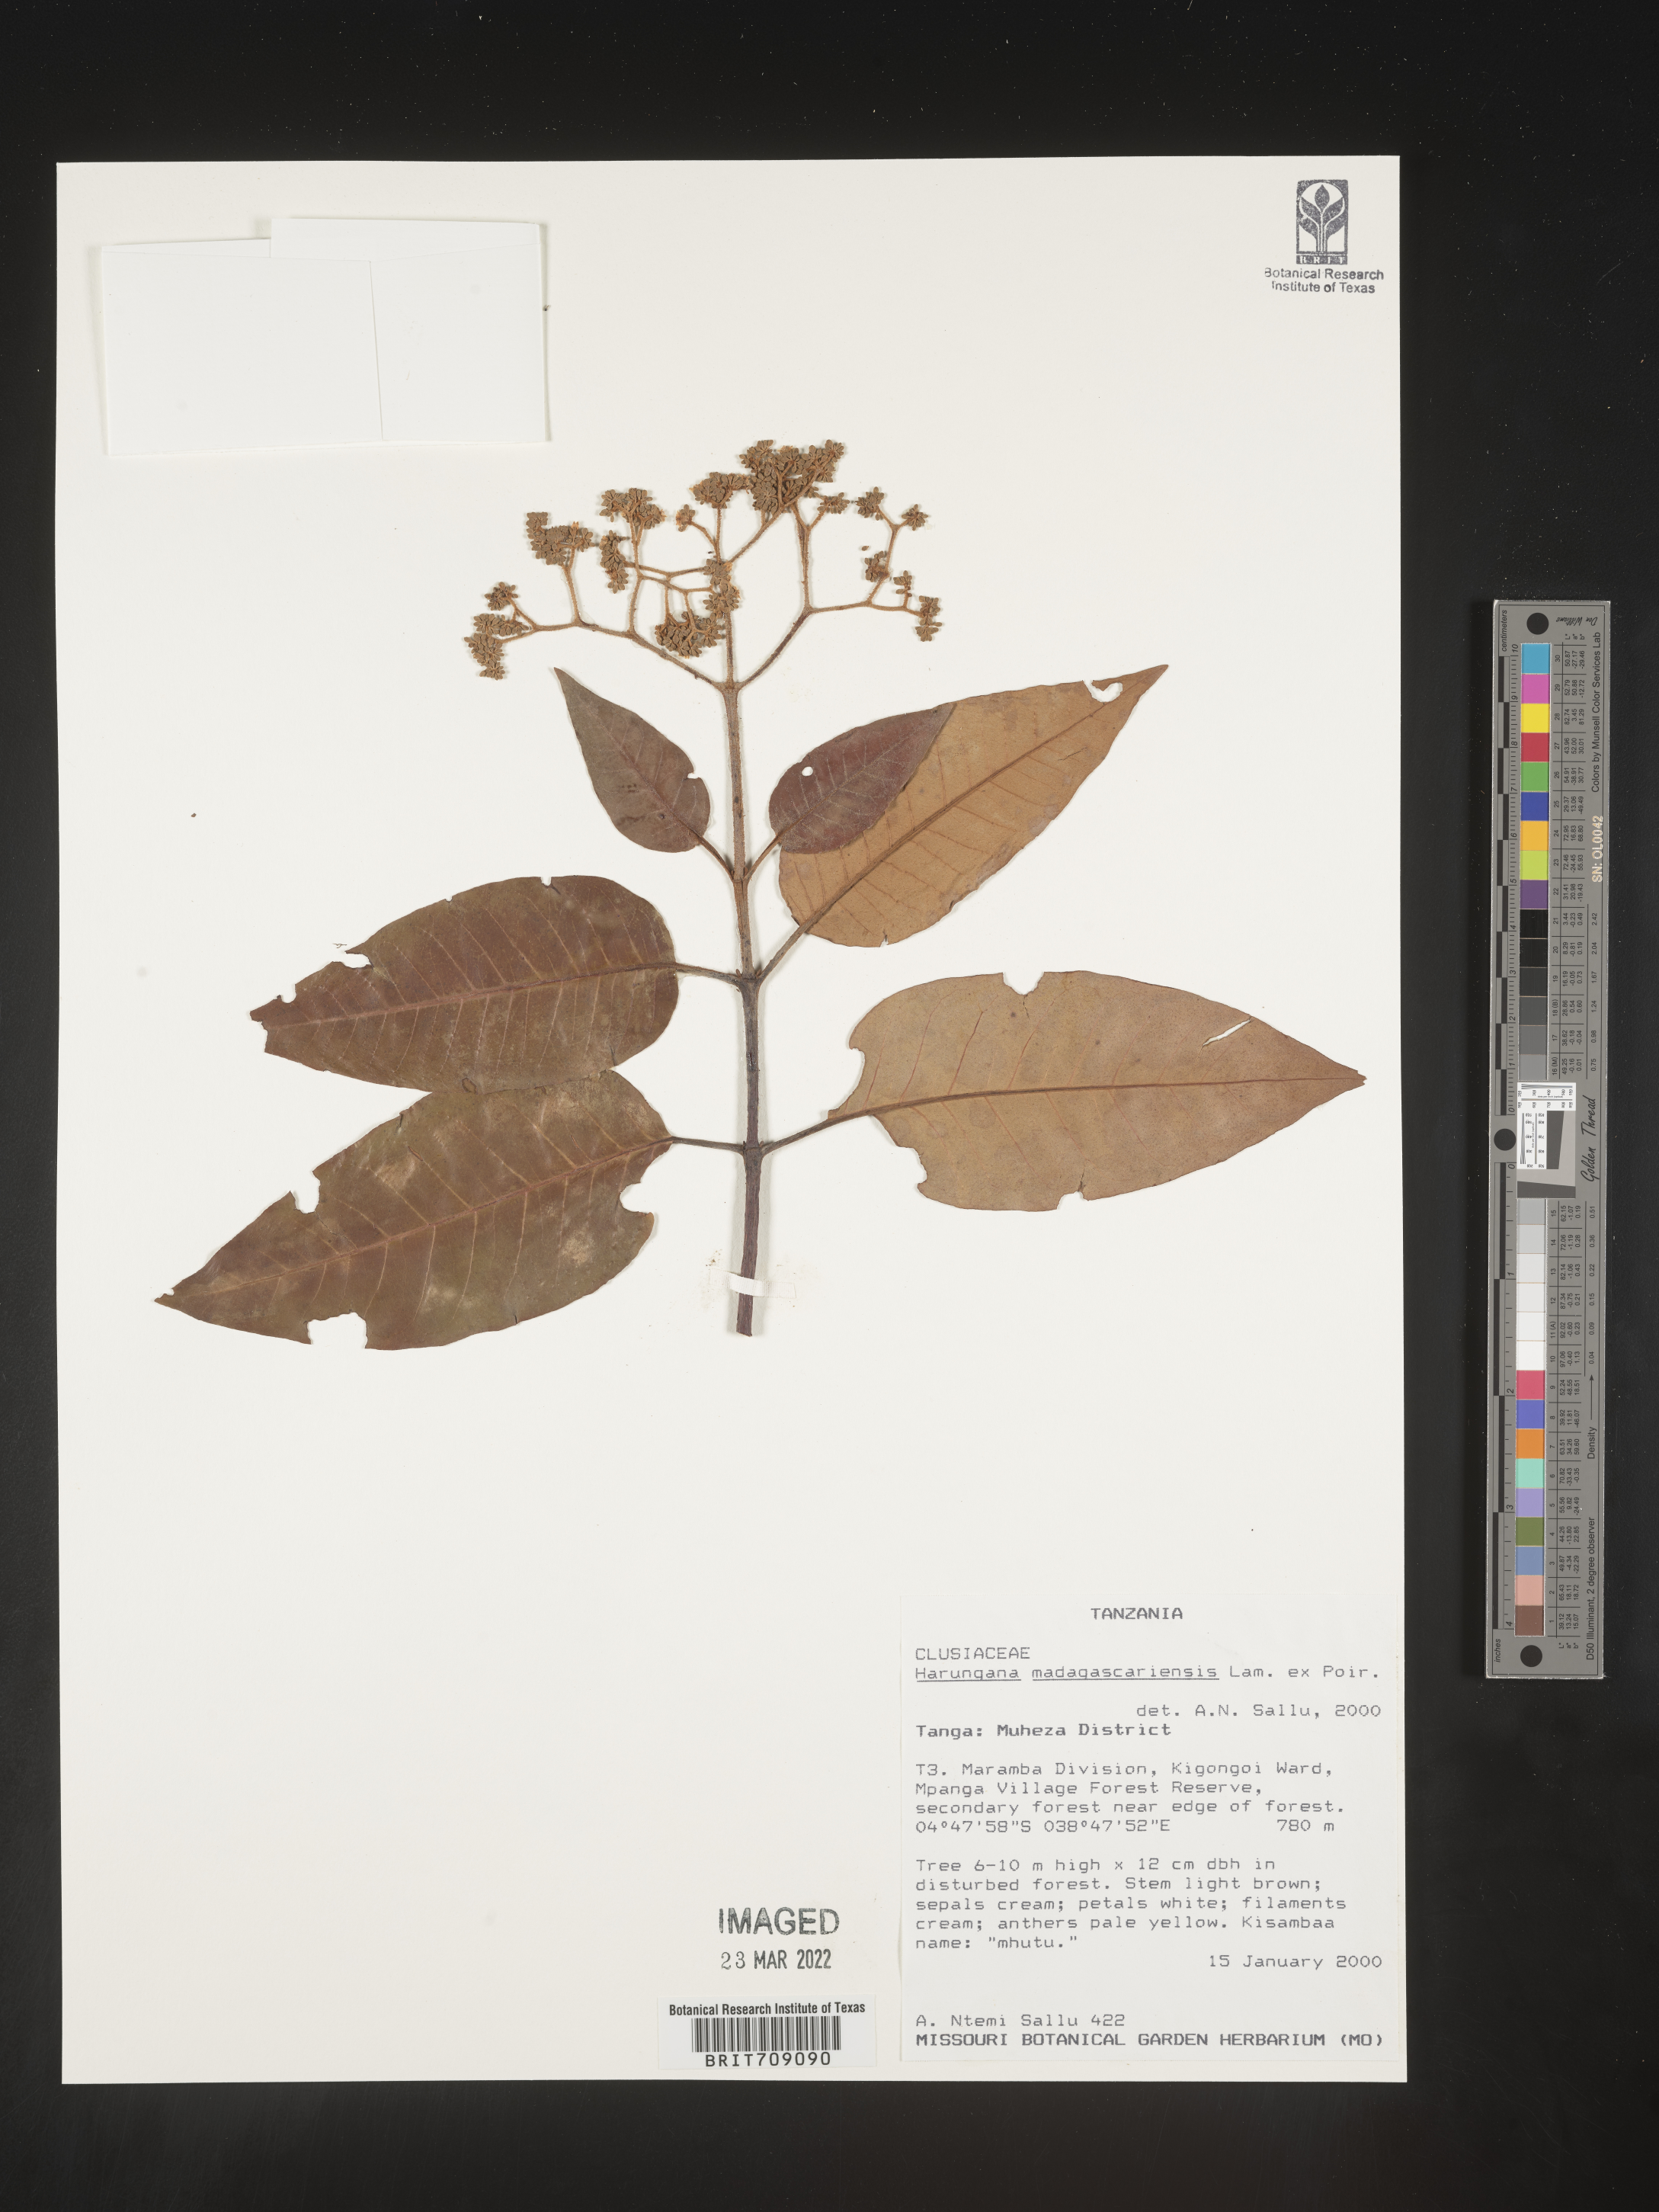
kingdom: Plantae
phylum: Tracheophyta
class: Magnoliopsida
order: Malpighiales
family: Hypericaceae
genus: Harungana
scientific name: Harungana
